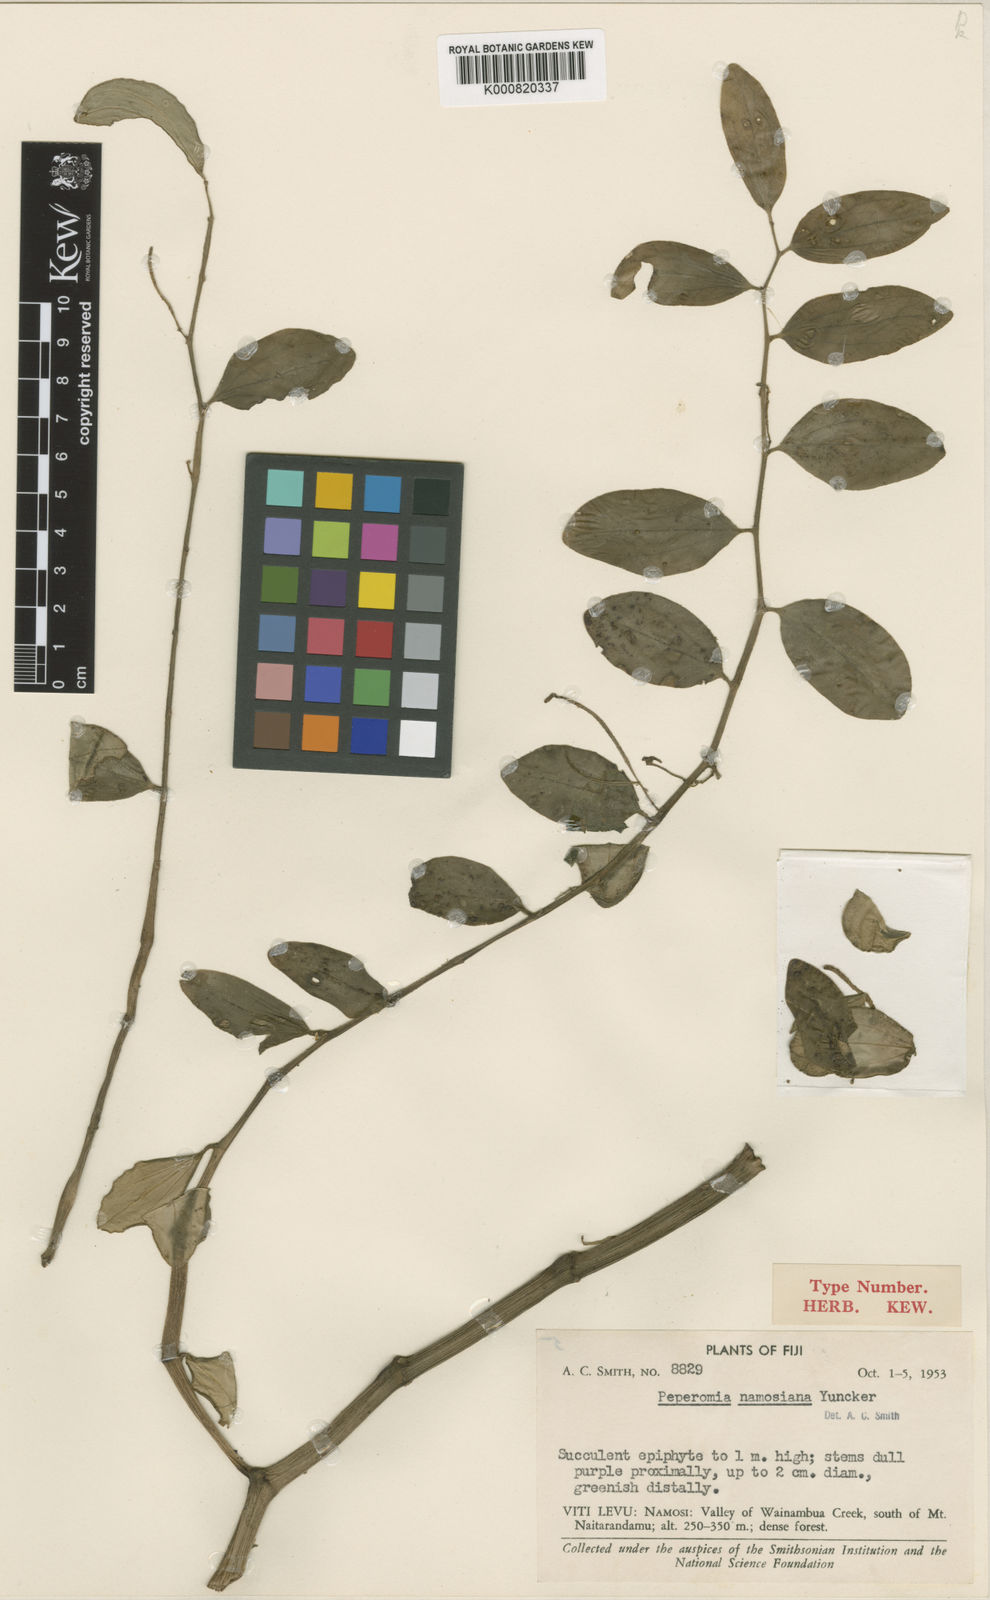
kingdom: Plantae
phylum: Tracheophyta
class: Magnoliopsida
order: Piperales
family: Piperaceae
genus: Peperomia
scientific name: Peperomia namosiana
